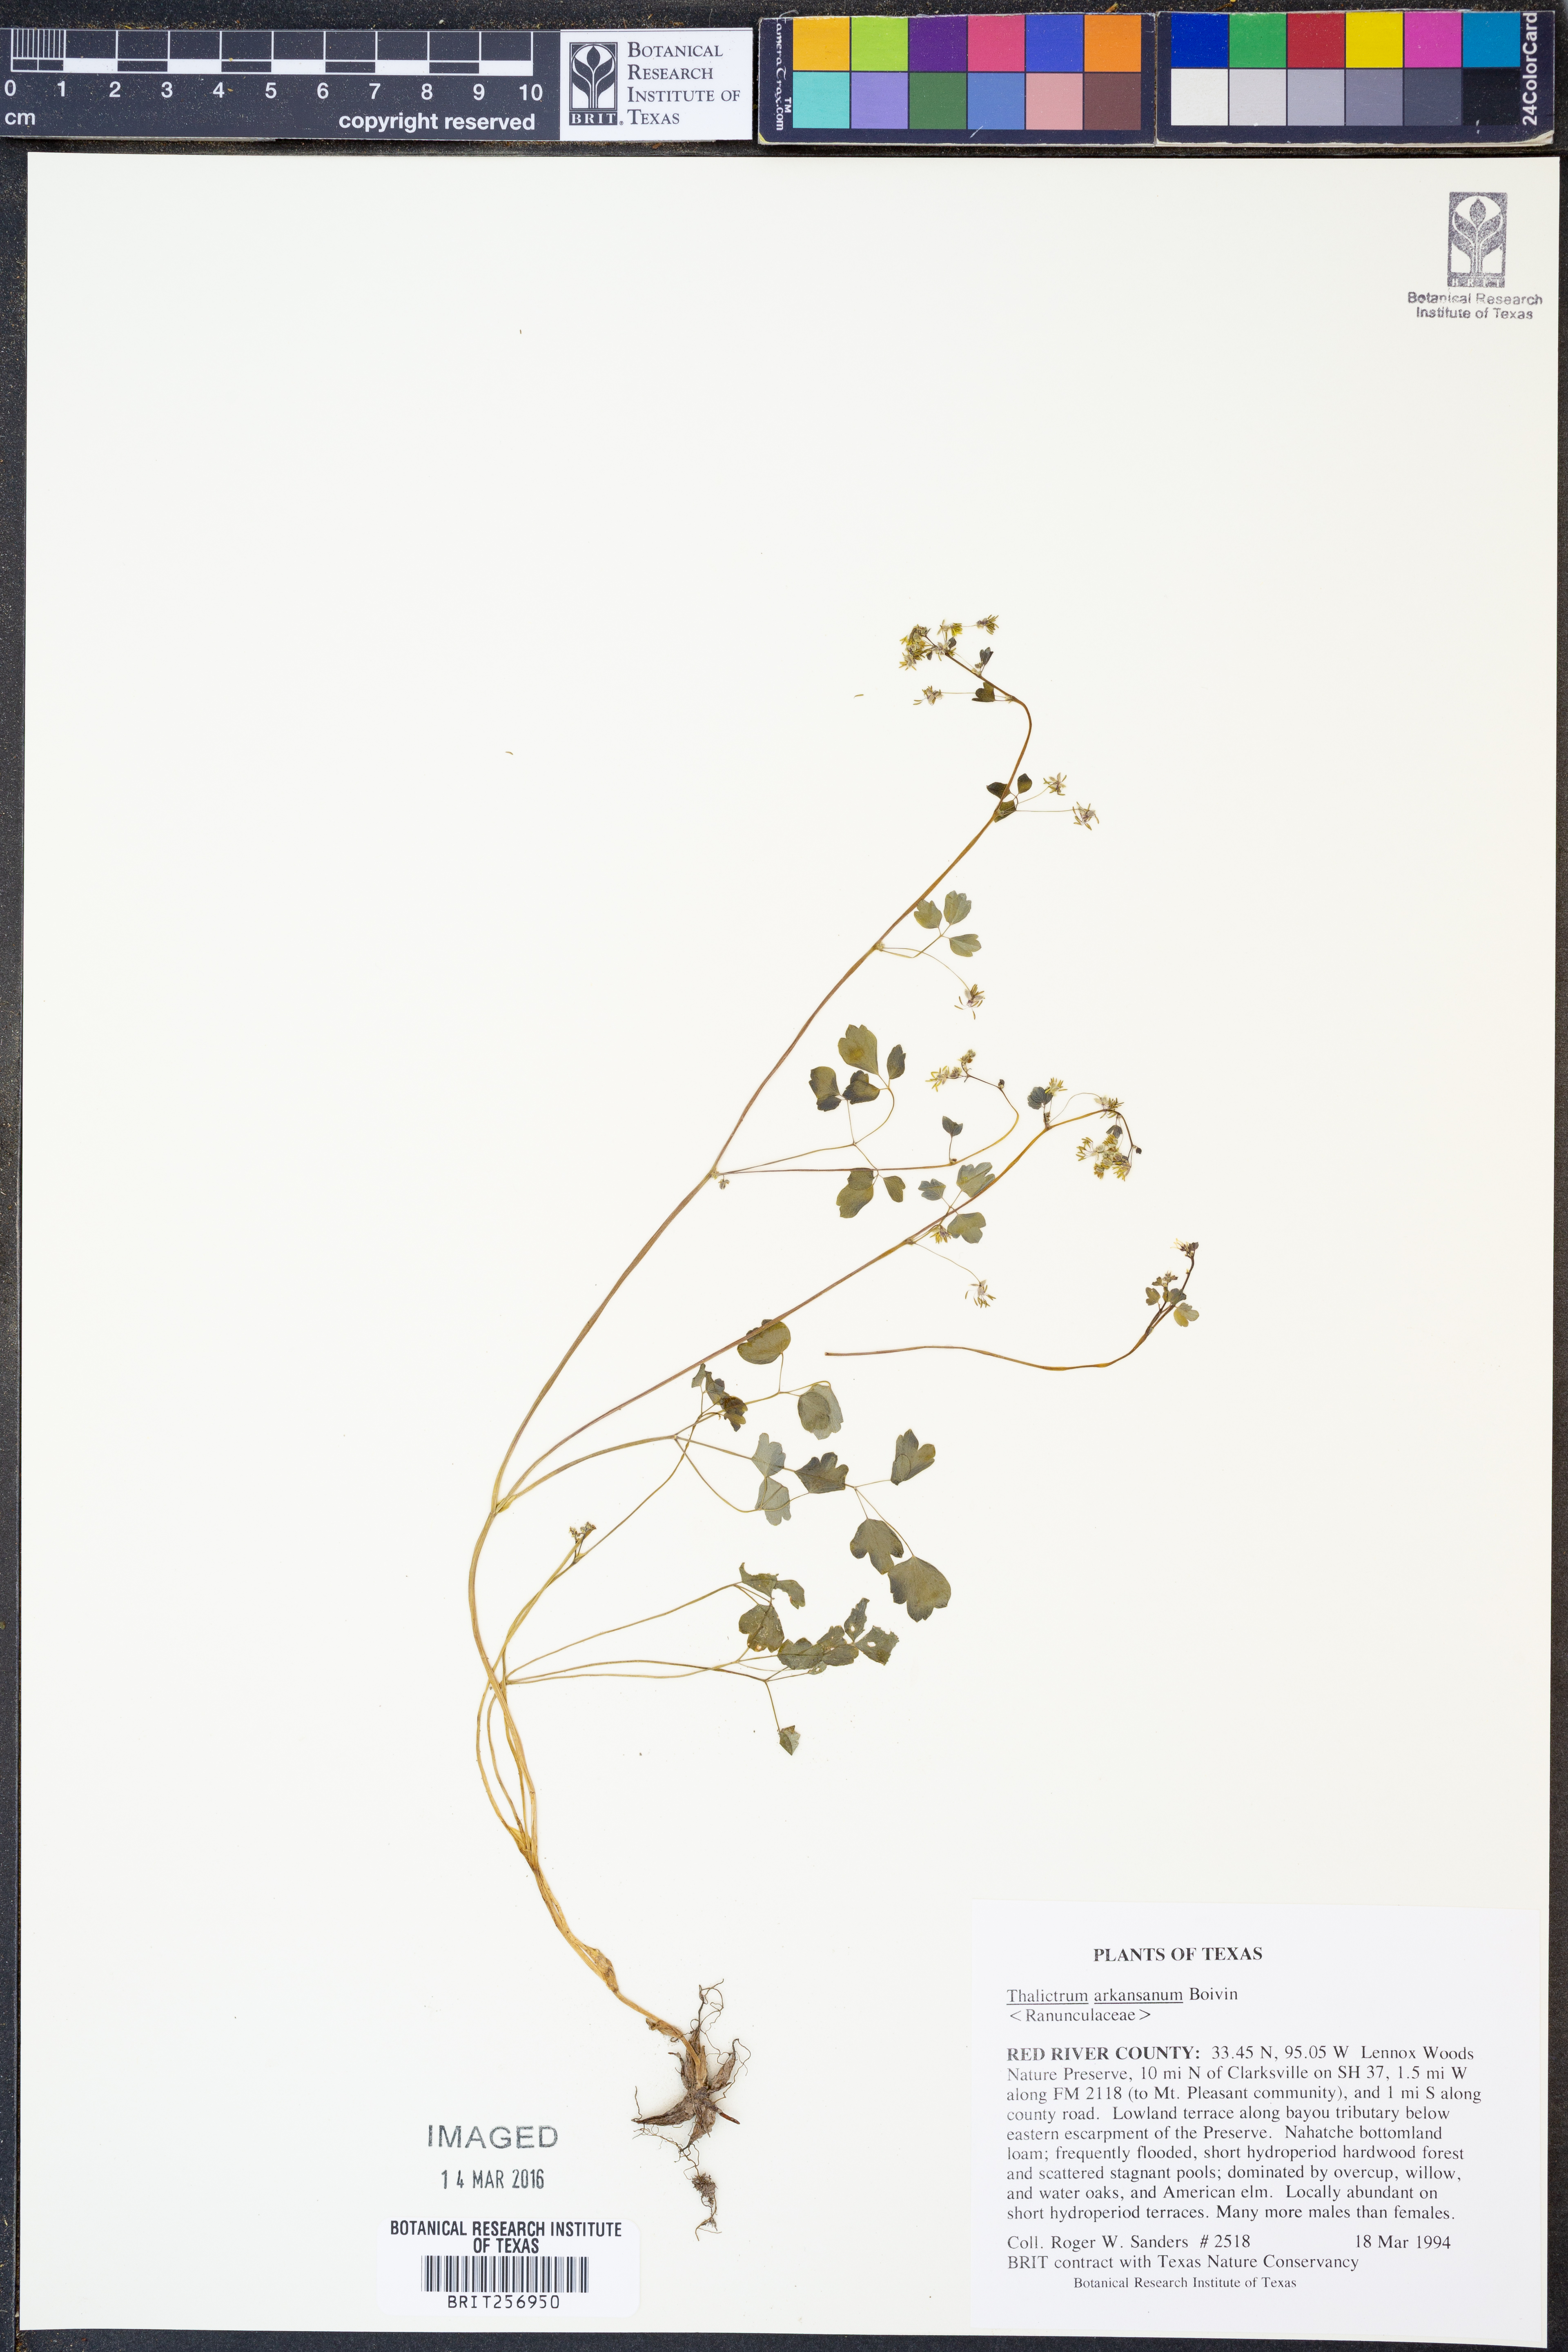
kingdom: Plantae
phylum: Tracheophyta
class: Magnoliopsida
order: Ranunculales
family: Ranunculaceae
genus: Thalictrum
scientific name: Thalictrum arkansanum
